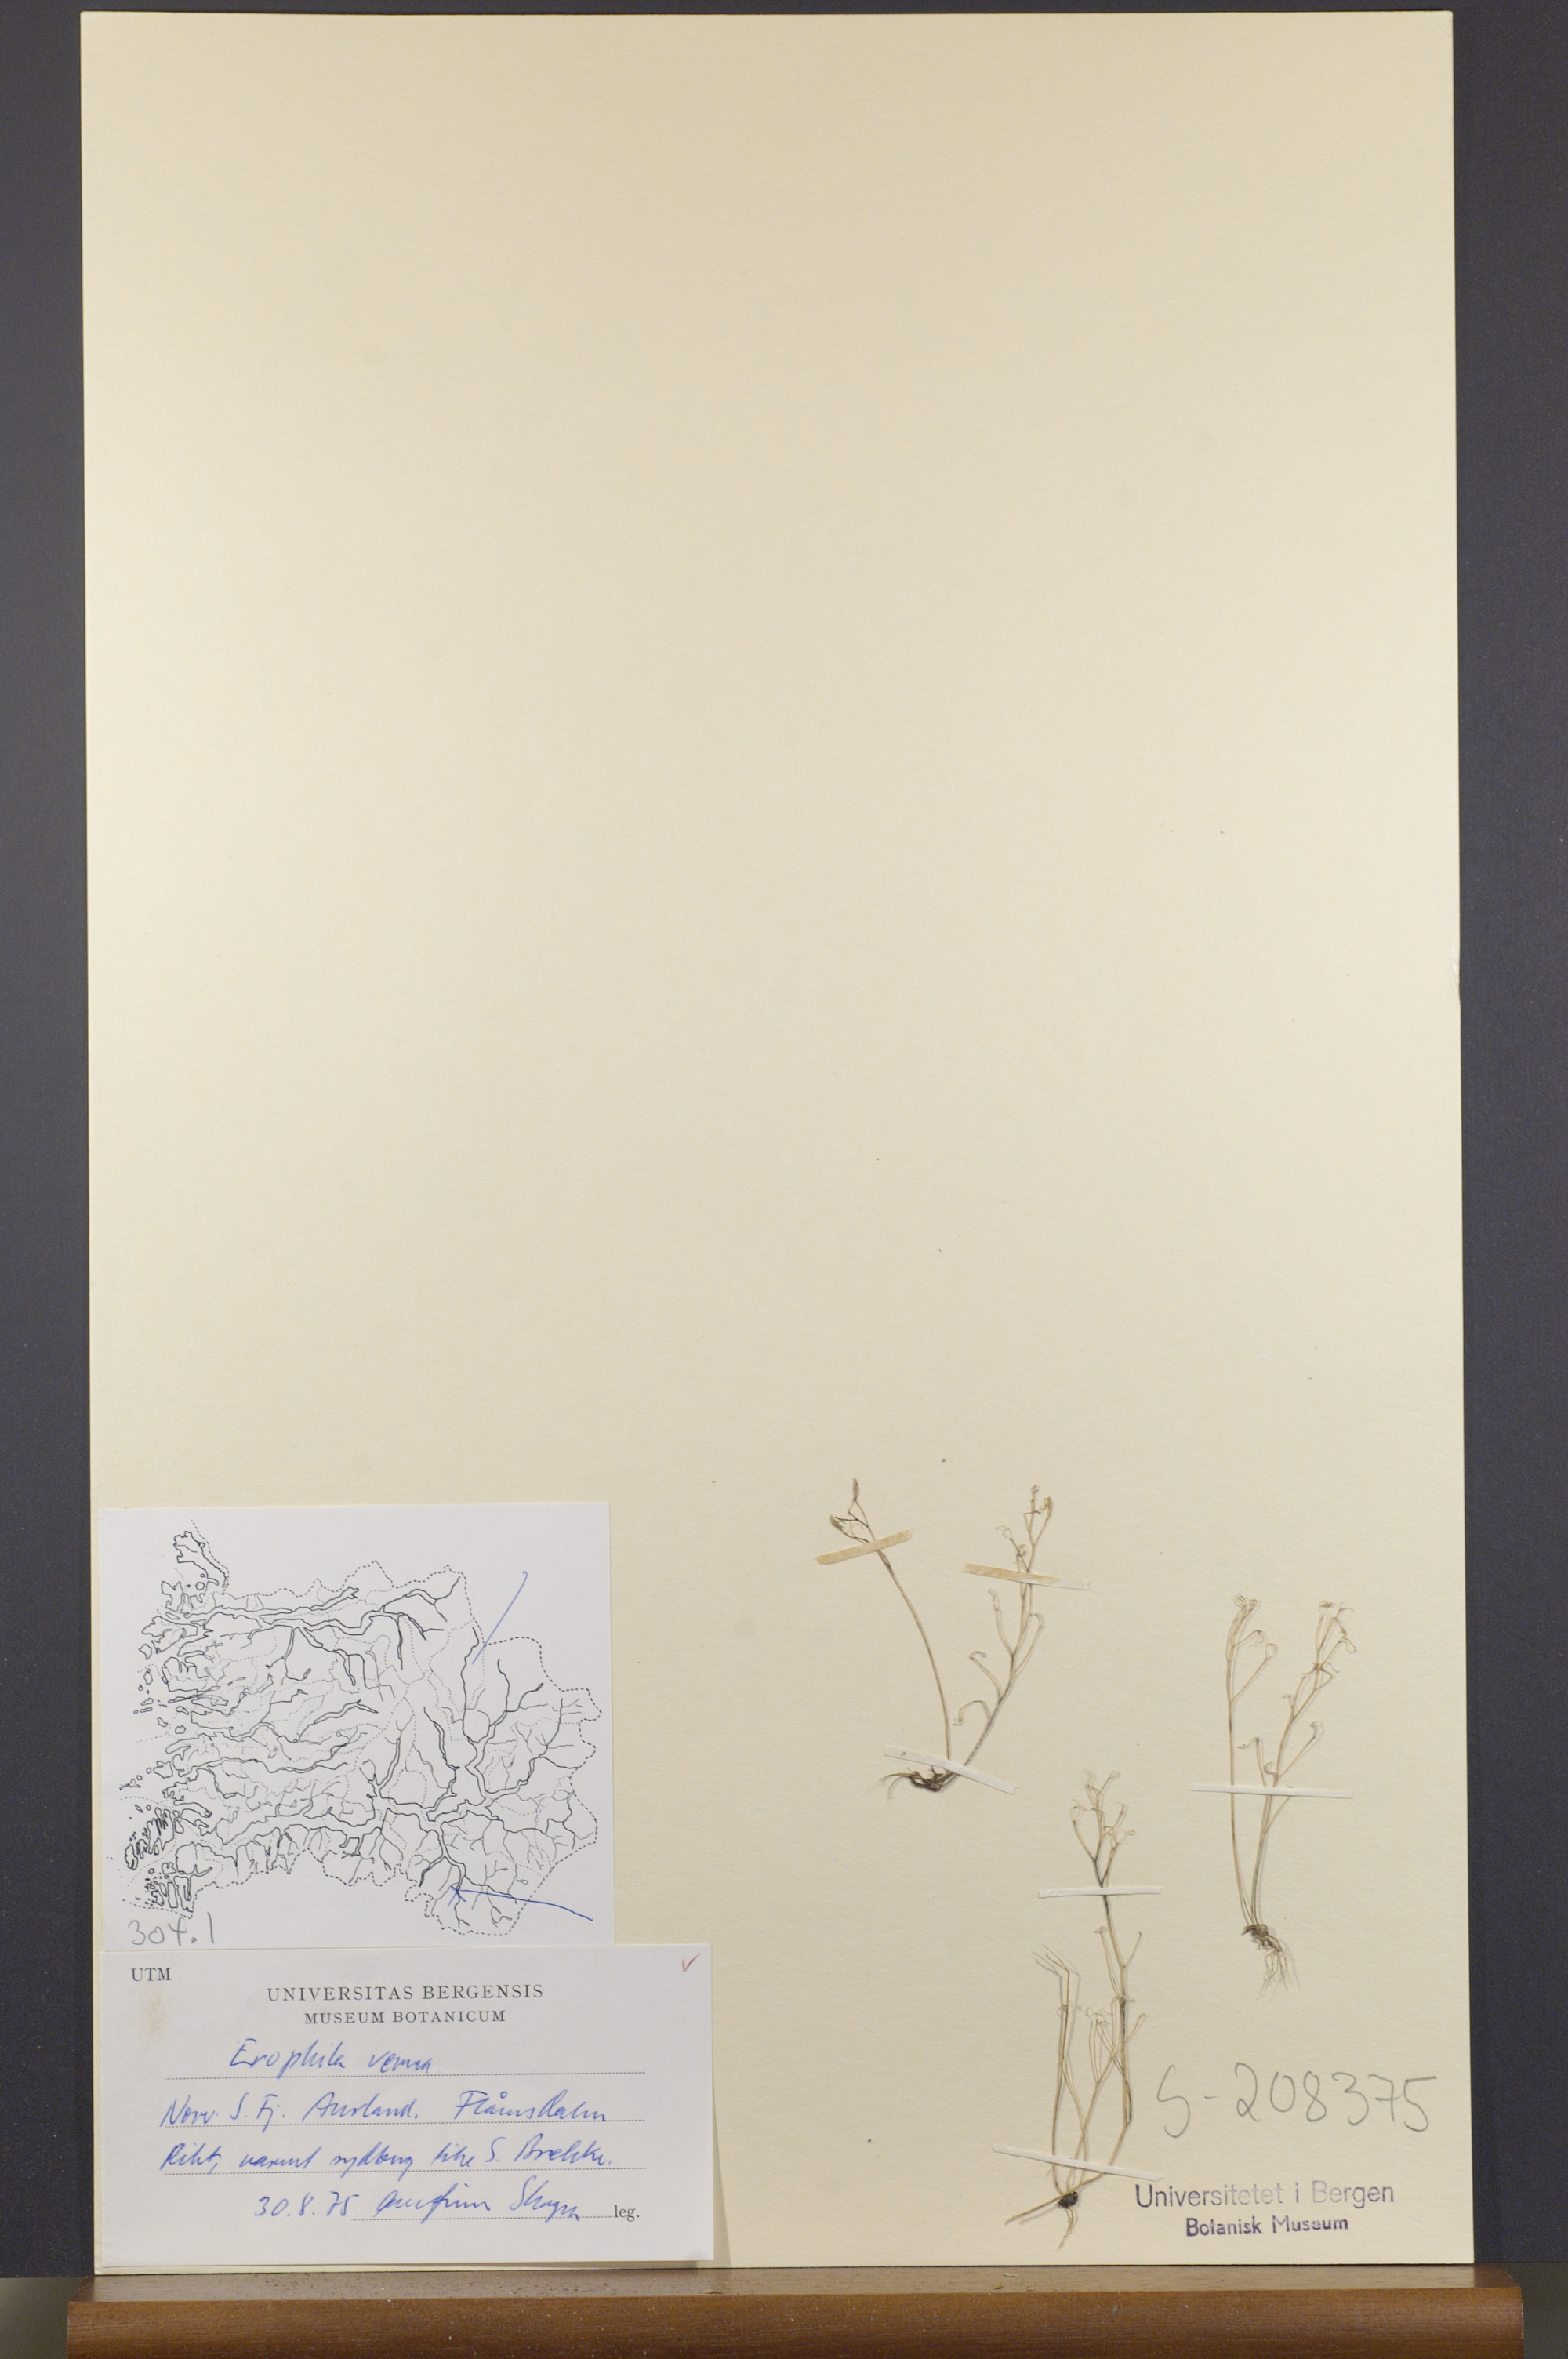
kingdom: Plantae
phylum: Tracheophyta
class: Magnoliopsida
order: Brassicales
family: Brassicaceae
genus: Draba
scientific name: Draba verna
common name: Spring draba
